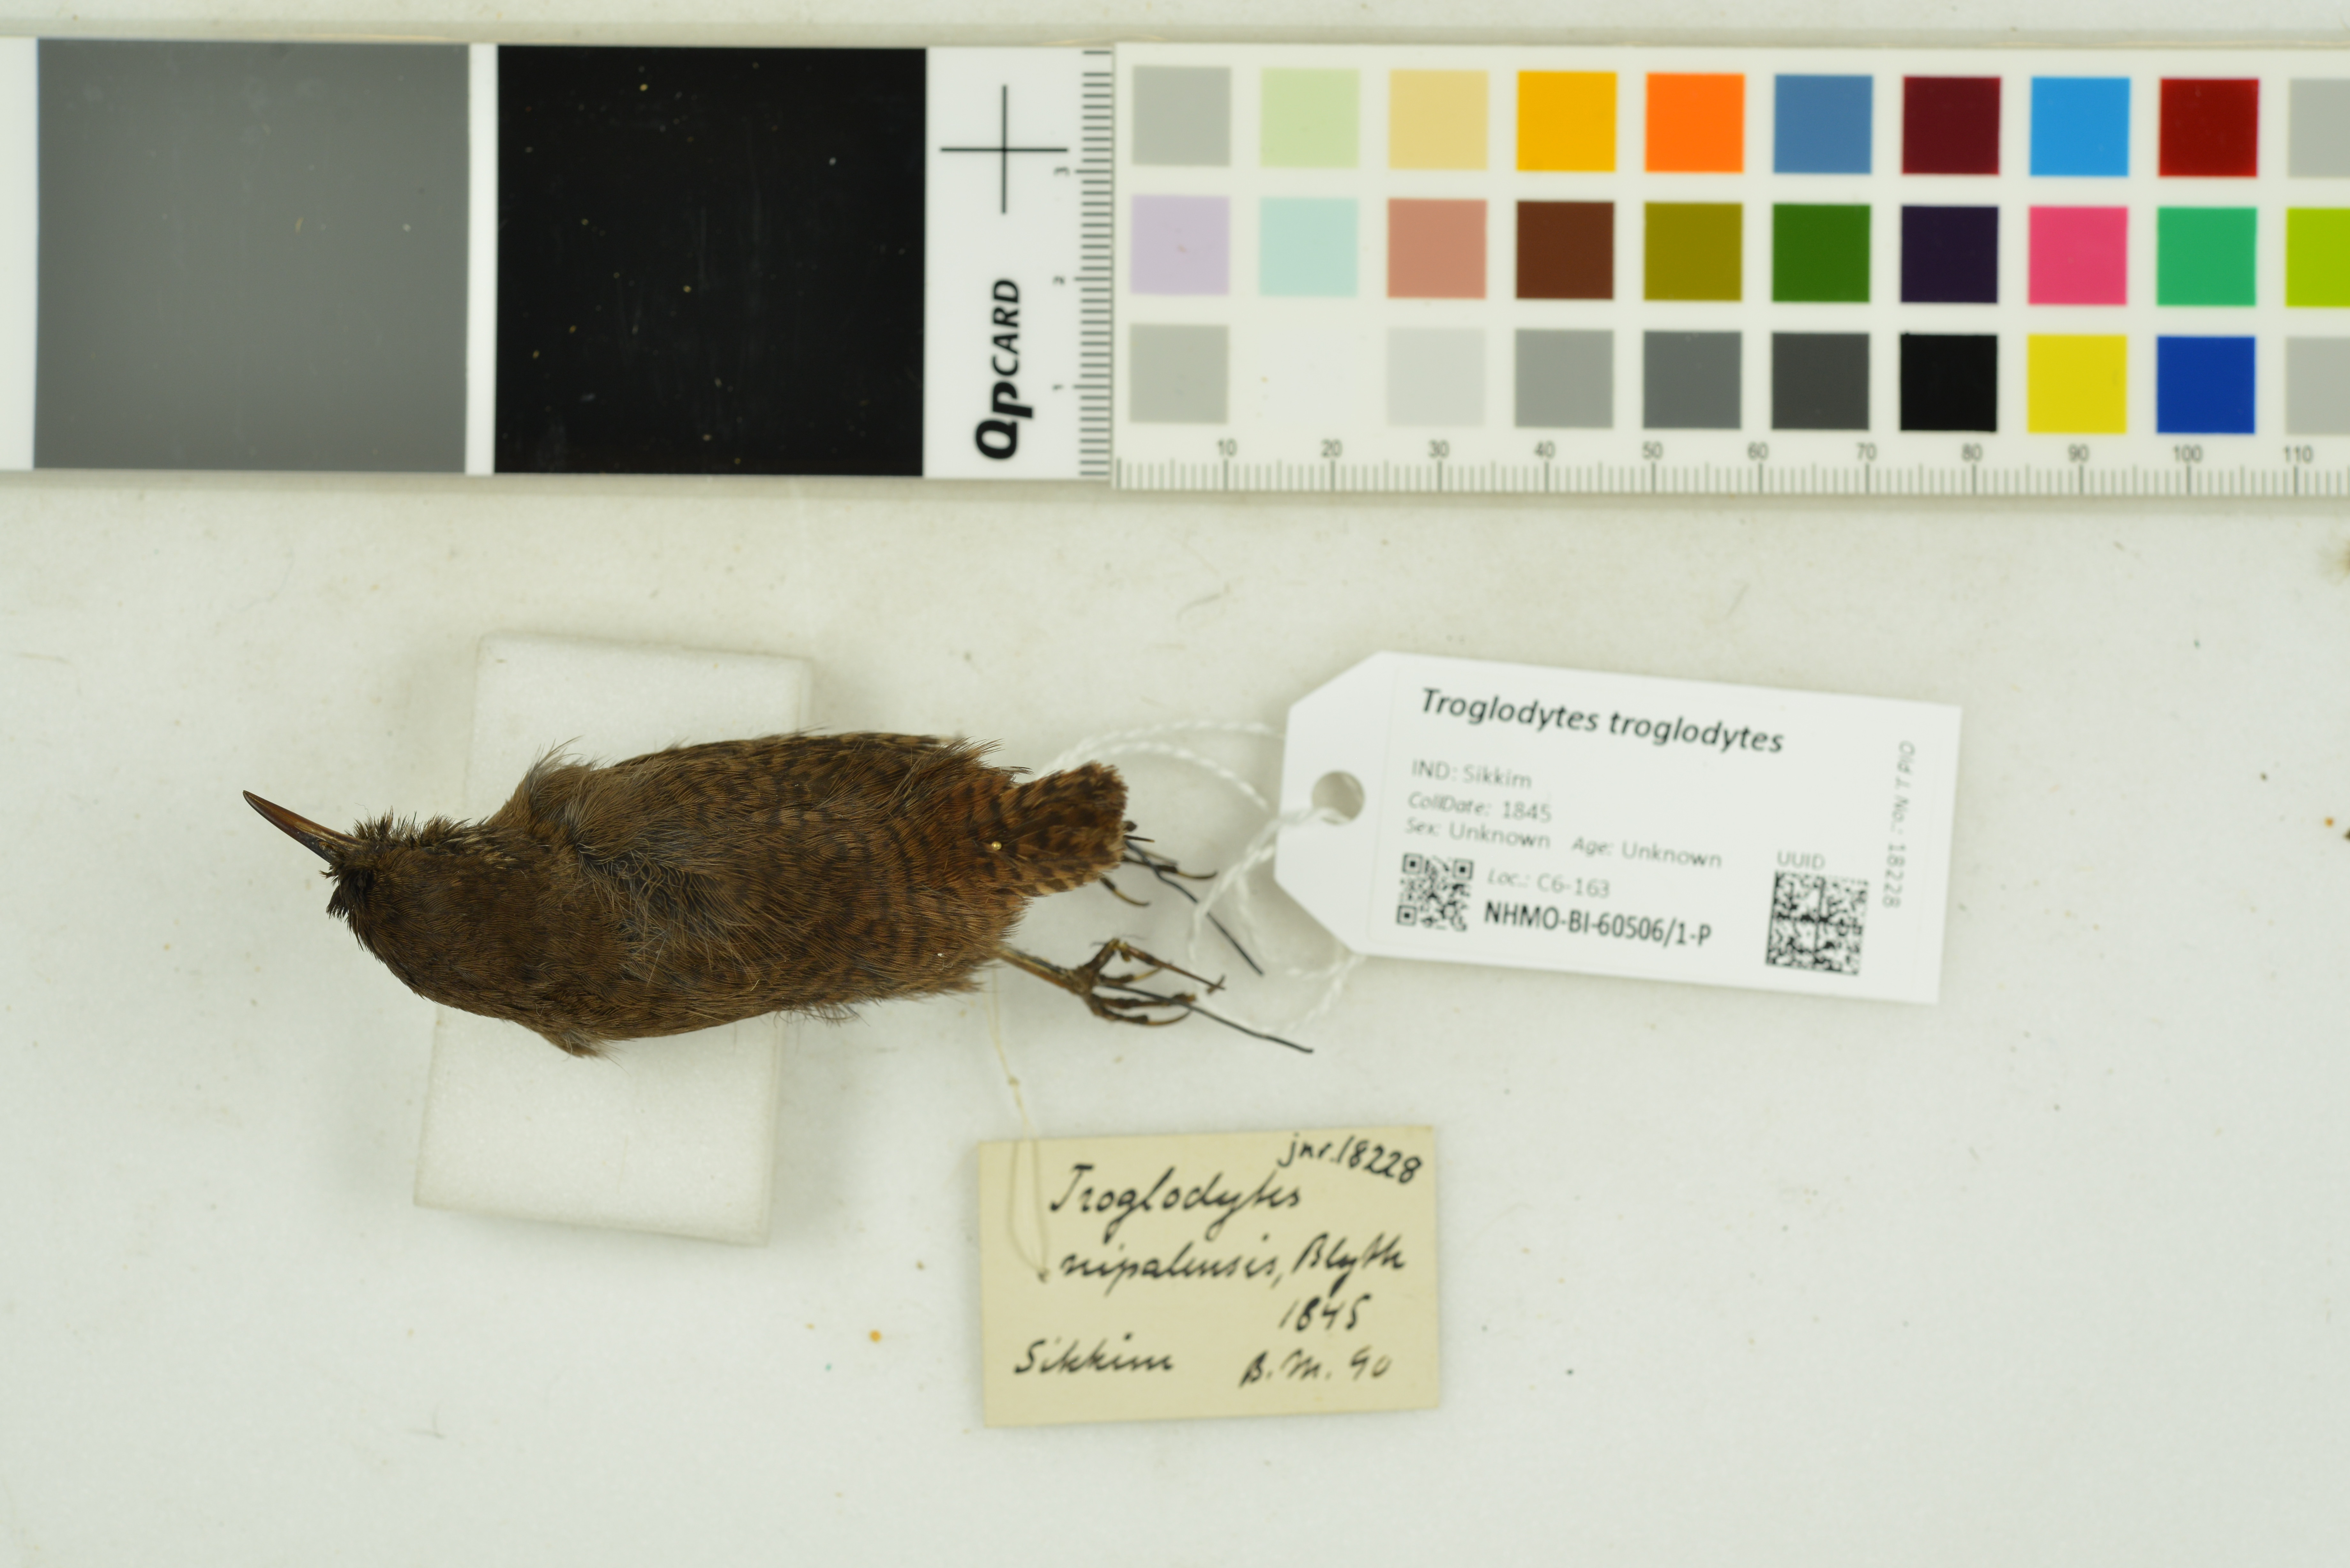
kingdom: Animalia
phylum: Chordata
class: Aves
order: Passeriformes
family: Troglodytidae
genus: Troglodytes
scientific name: Troglodytes troglodytes
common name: Eurasian wren
